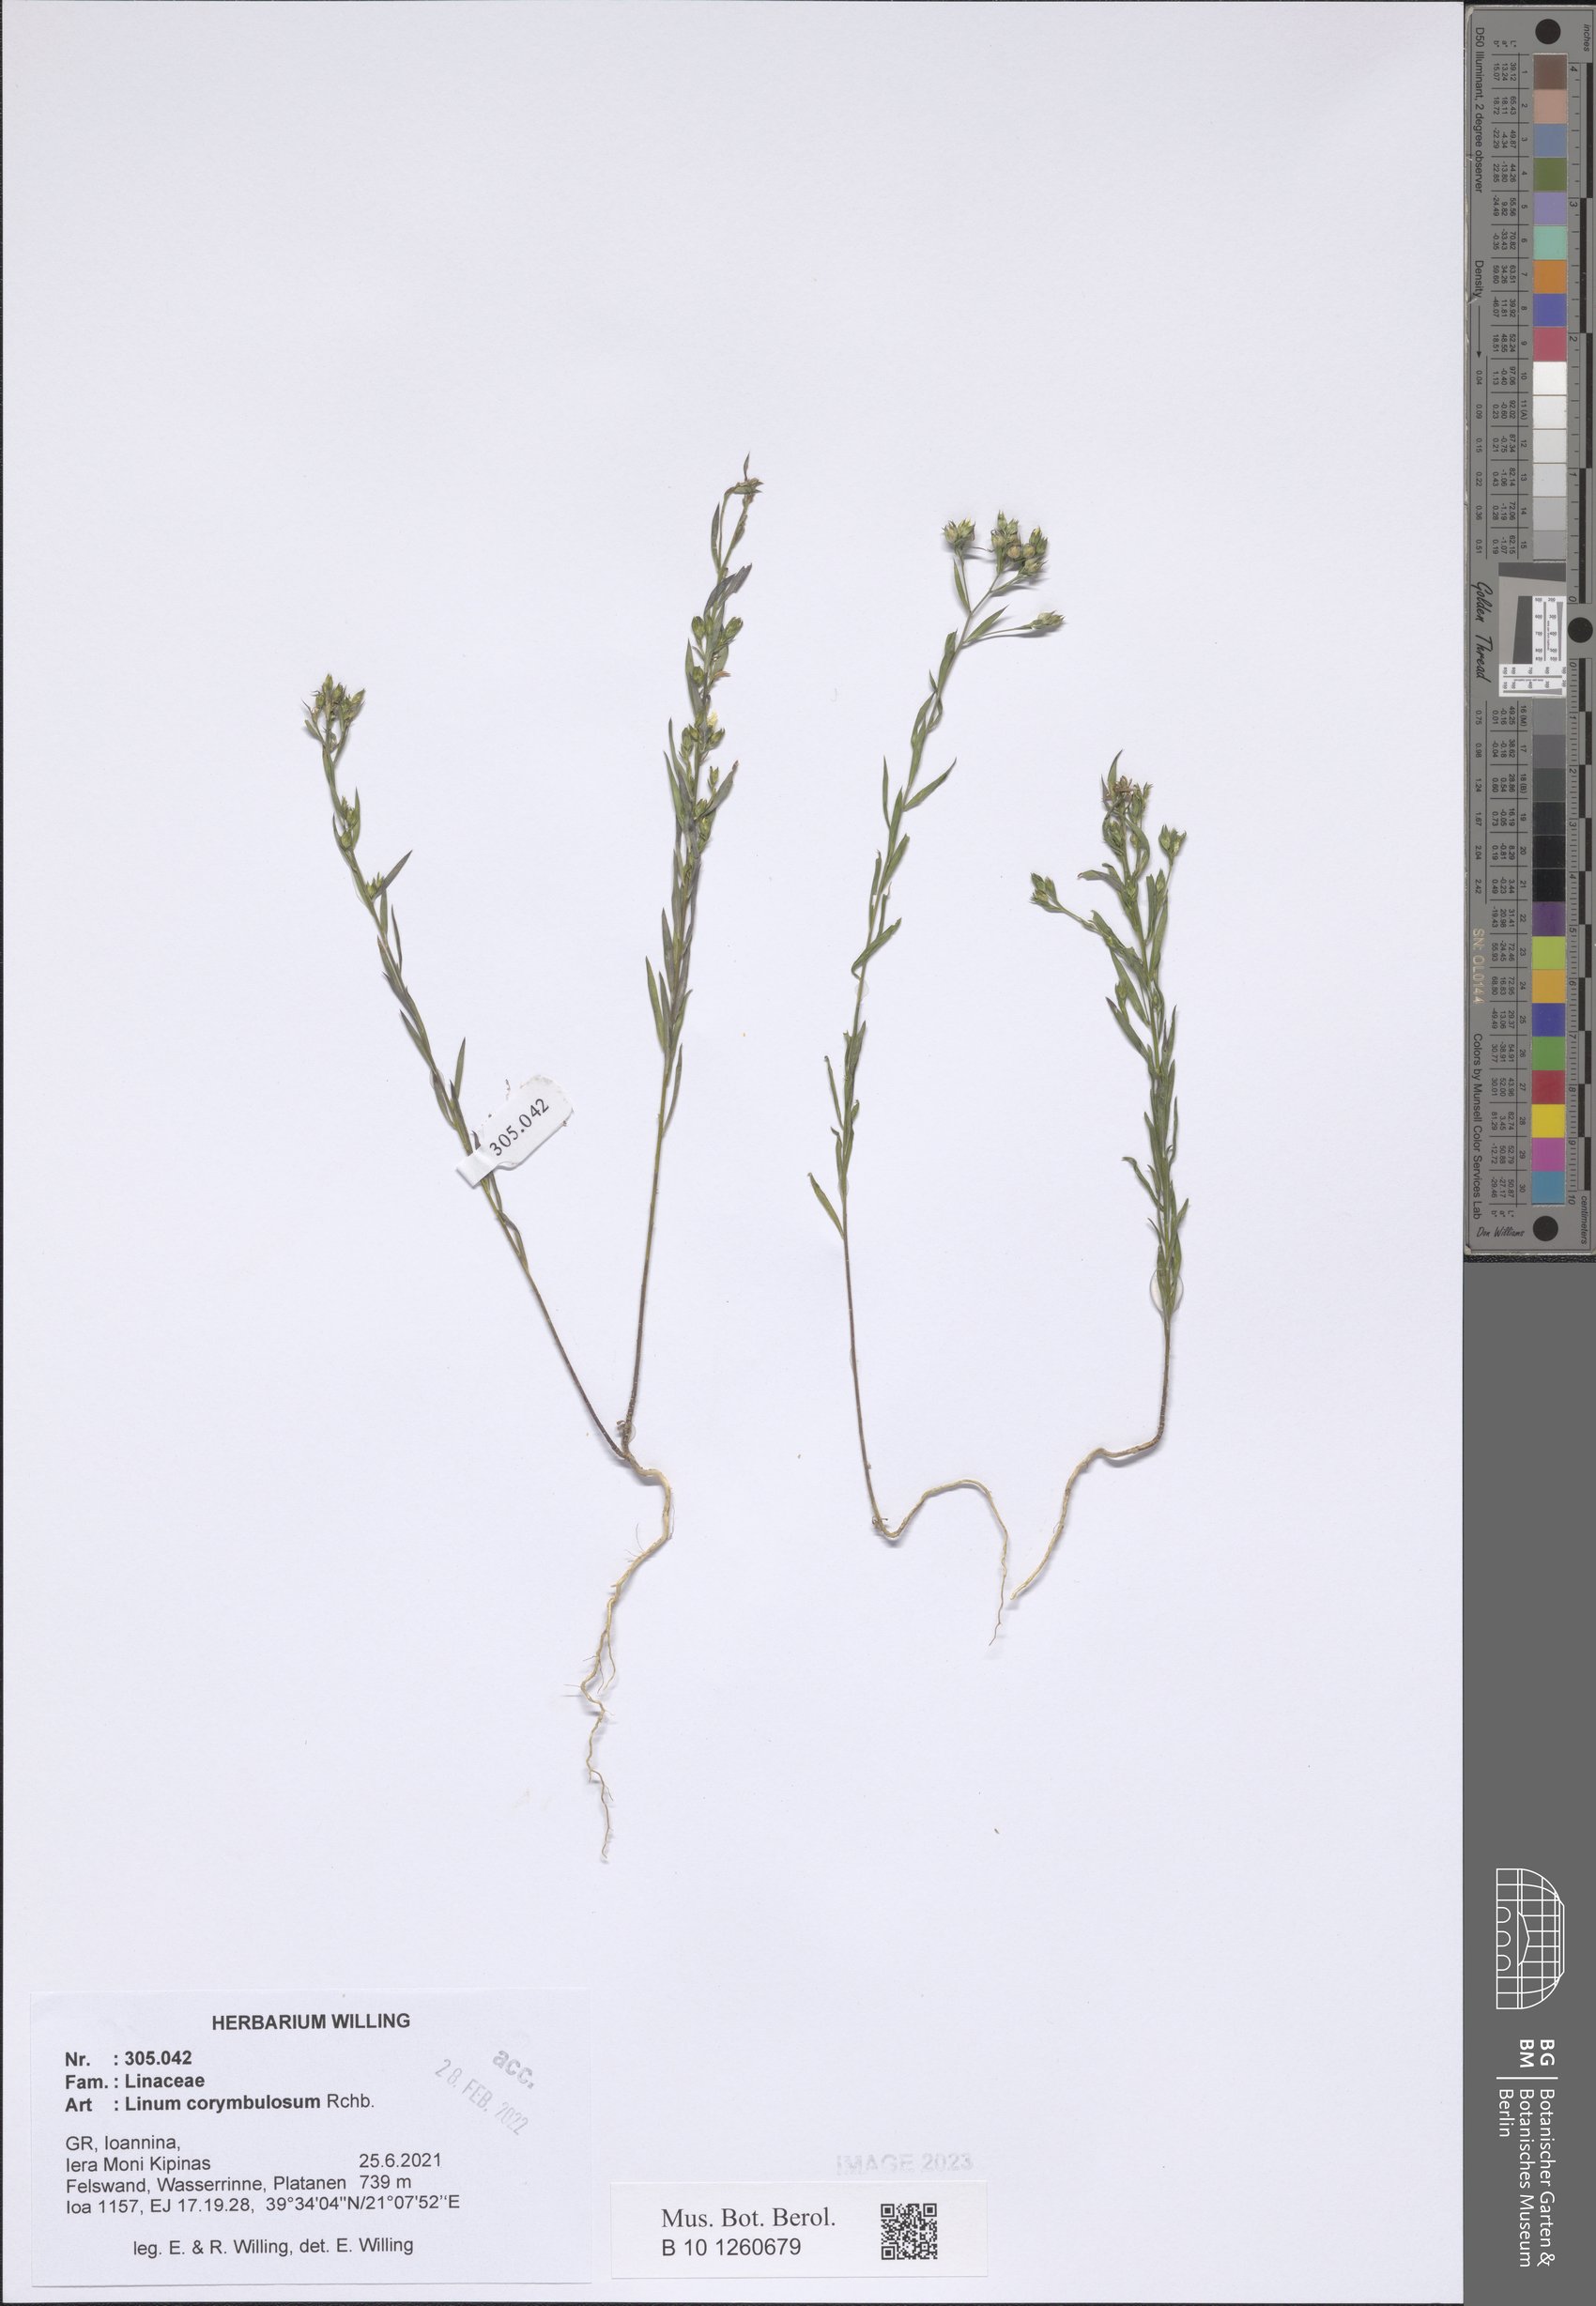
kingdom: Plantae
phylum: Tracheophyta
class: Magnoliopsida
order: Malpighiales
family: Linaceae
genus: Linum
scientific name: Linum corymbulosum
